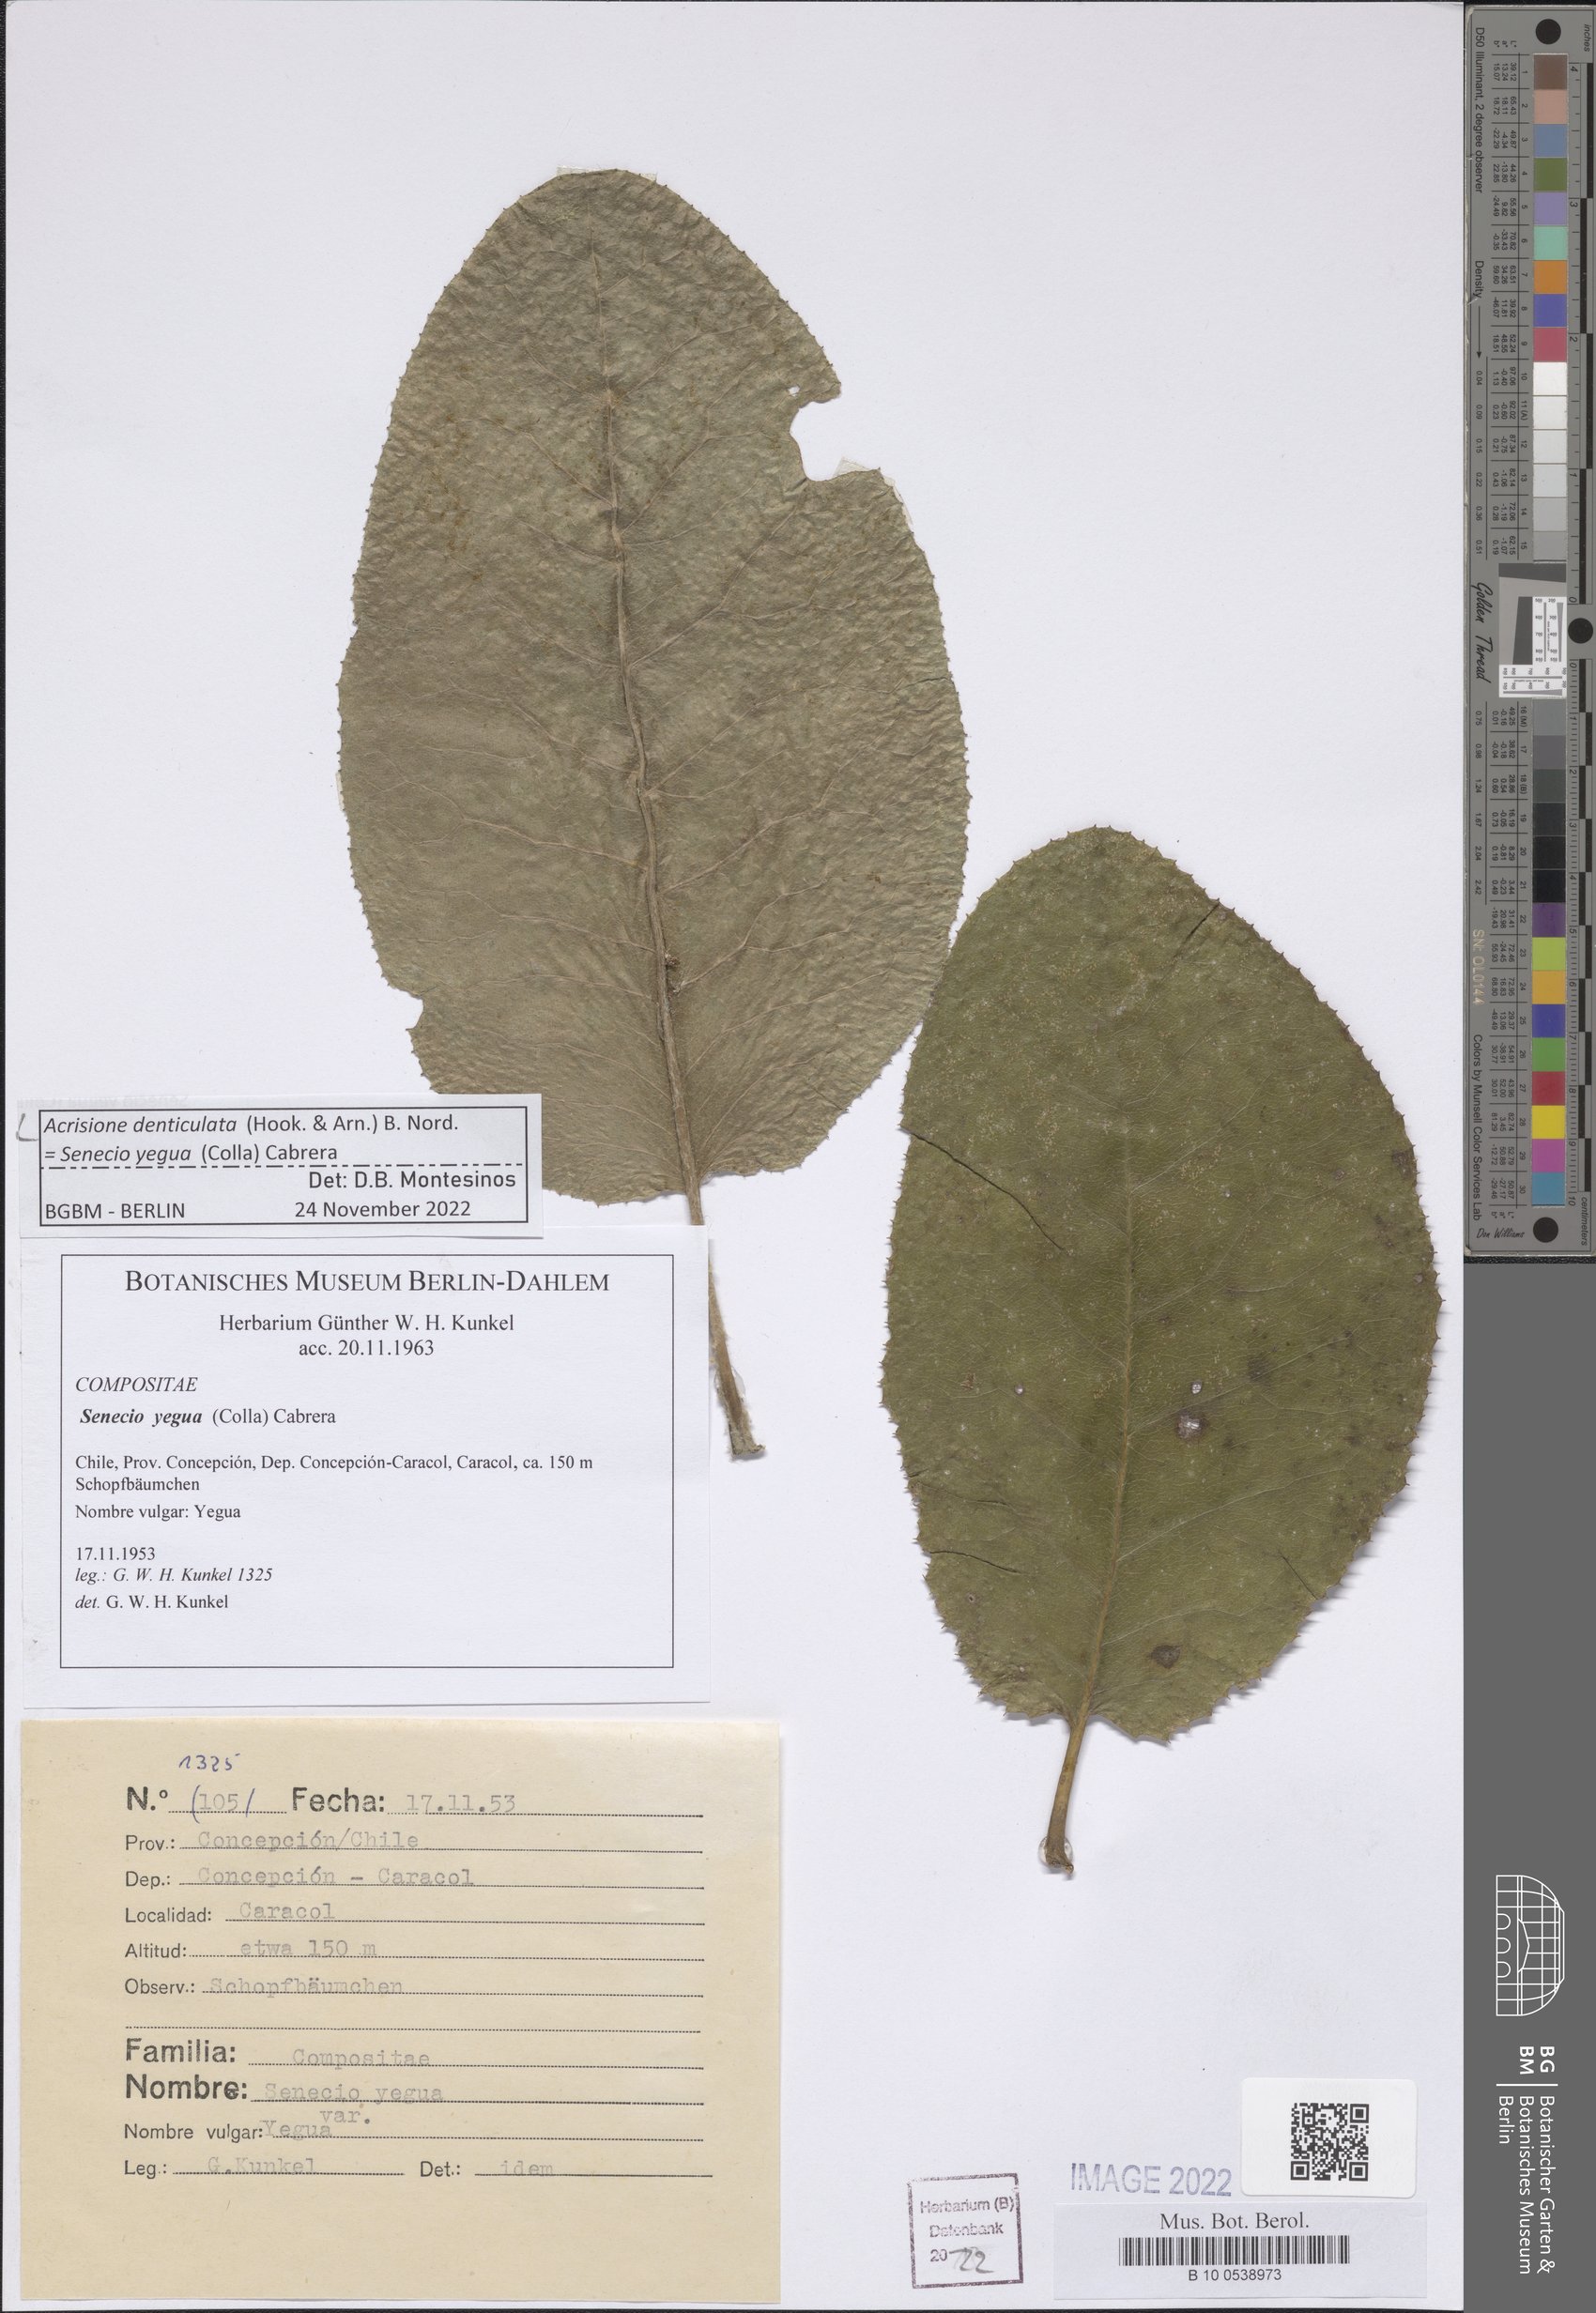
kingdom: Plantae
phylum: Tracheophyta
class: Magnoliopsida
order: Asterales
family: Asteraceae
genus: Acrisione
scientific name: Acrisione denticulata
